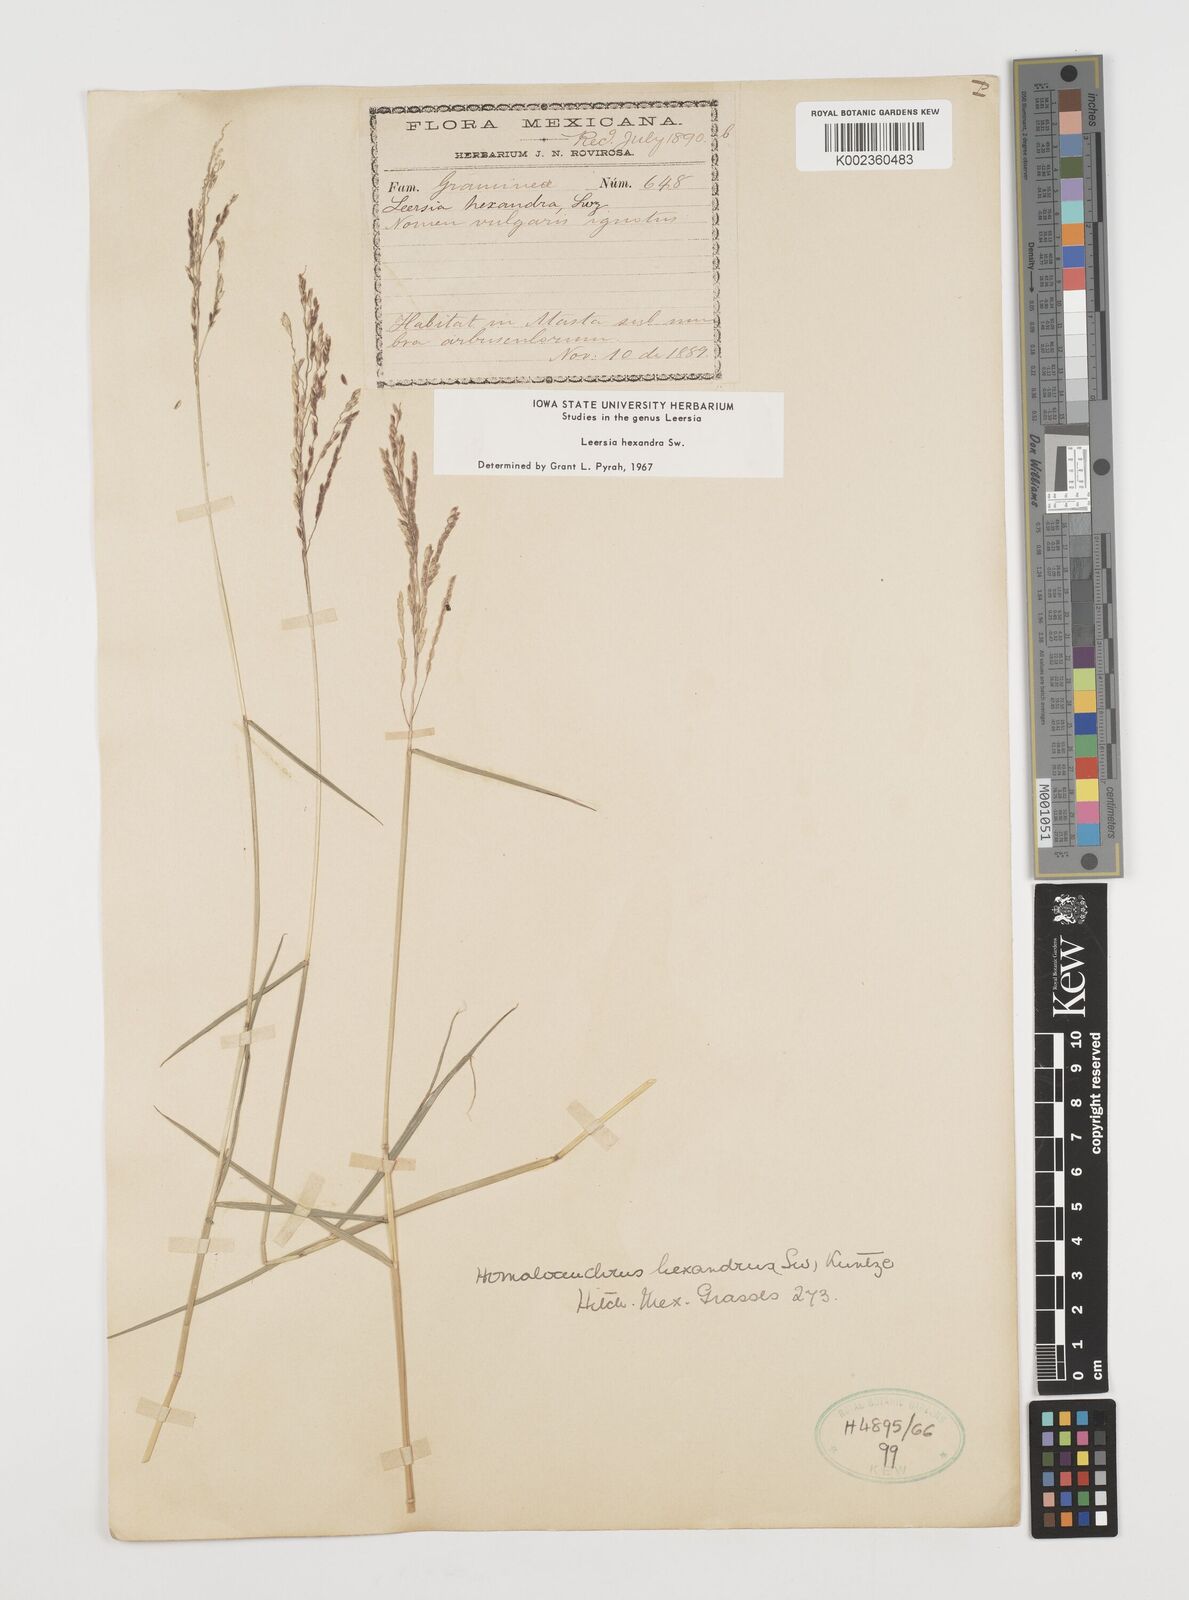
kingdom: Plantae
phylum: Tracheophyta
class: Liliopsida
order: Poales
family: Poaceae
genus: Leersia
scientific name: Leersia hexandra
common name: Southern cut grass
